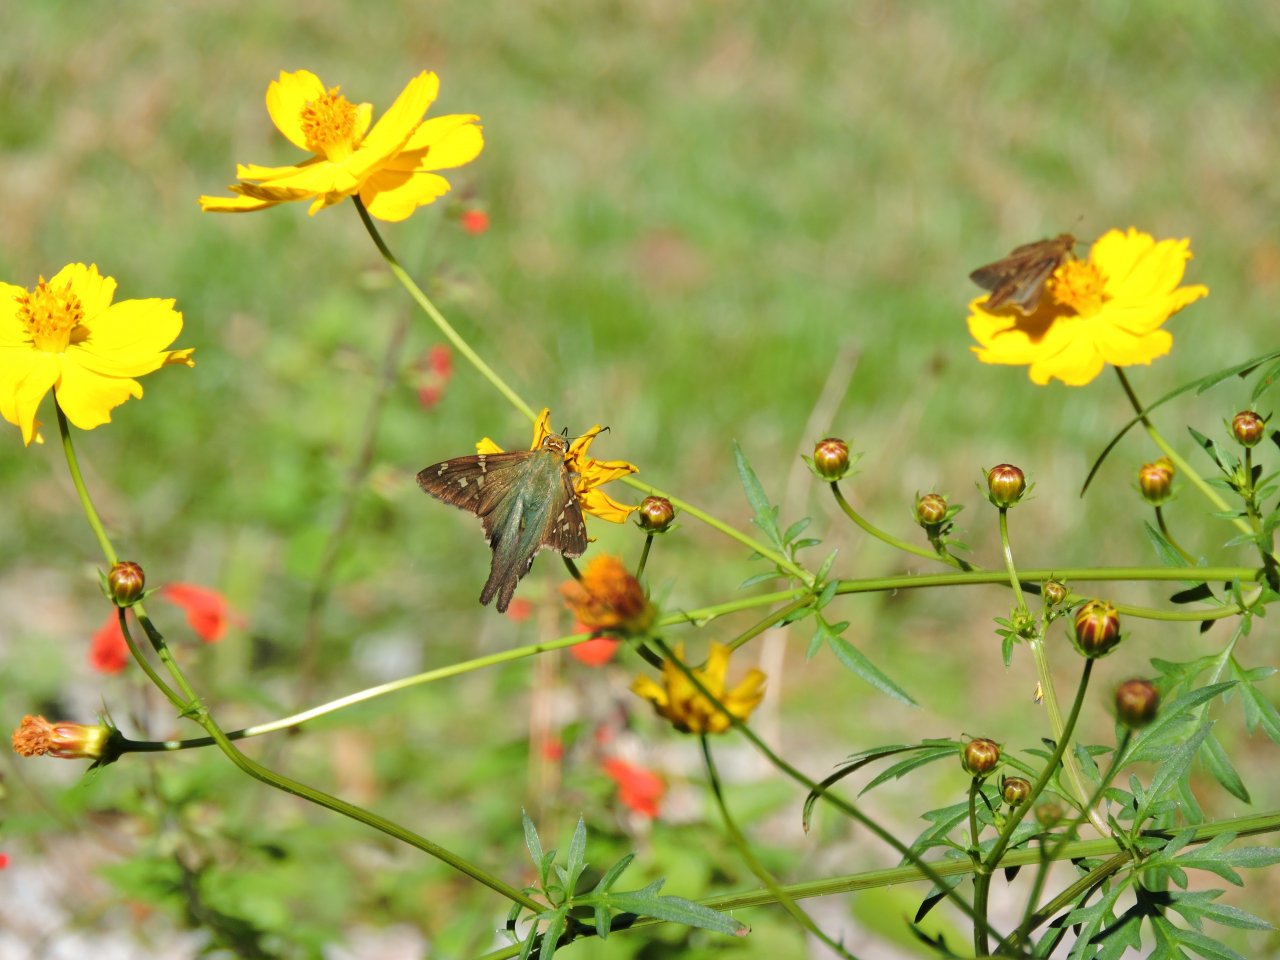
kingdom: Animalia
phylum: Arthropoda
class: Insecta
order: Lepidoptera
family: Hesperiidae
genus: Urbanus
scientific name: Urbanus proteus
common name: Long-tailed Skipper
